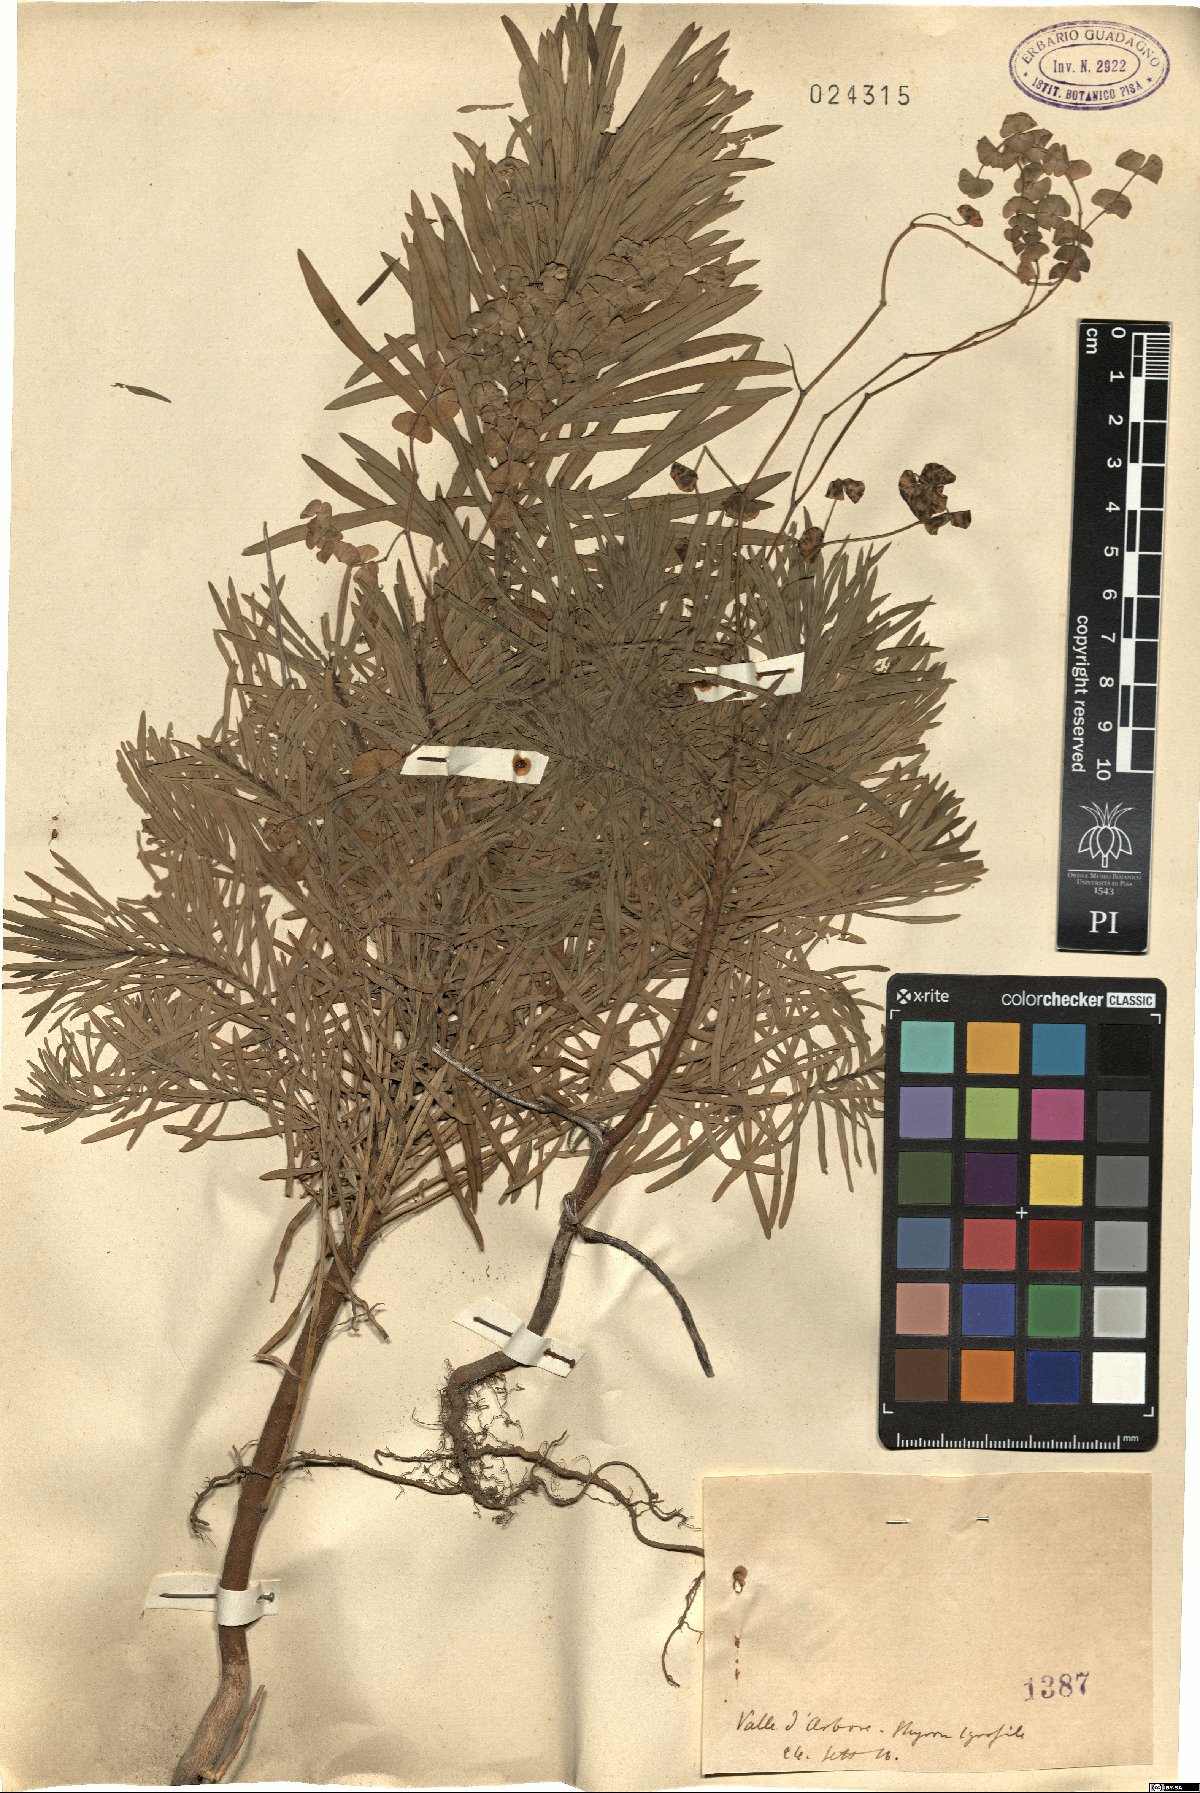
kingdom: Plantae
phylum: Tracheophyta
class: Magnoliopsida
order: Malpighiales
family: Euphorbiaceae
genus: Euphorbia
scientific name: Euphorbia
